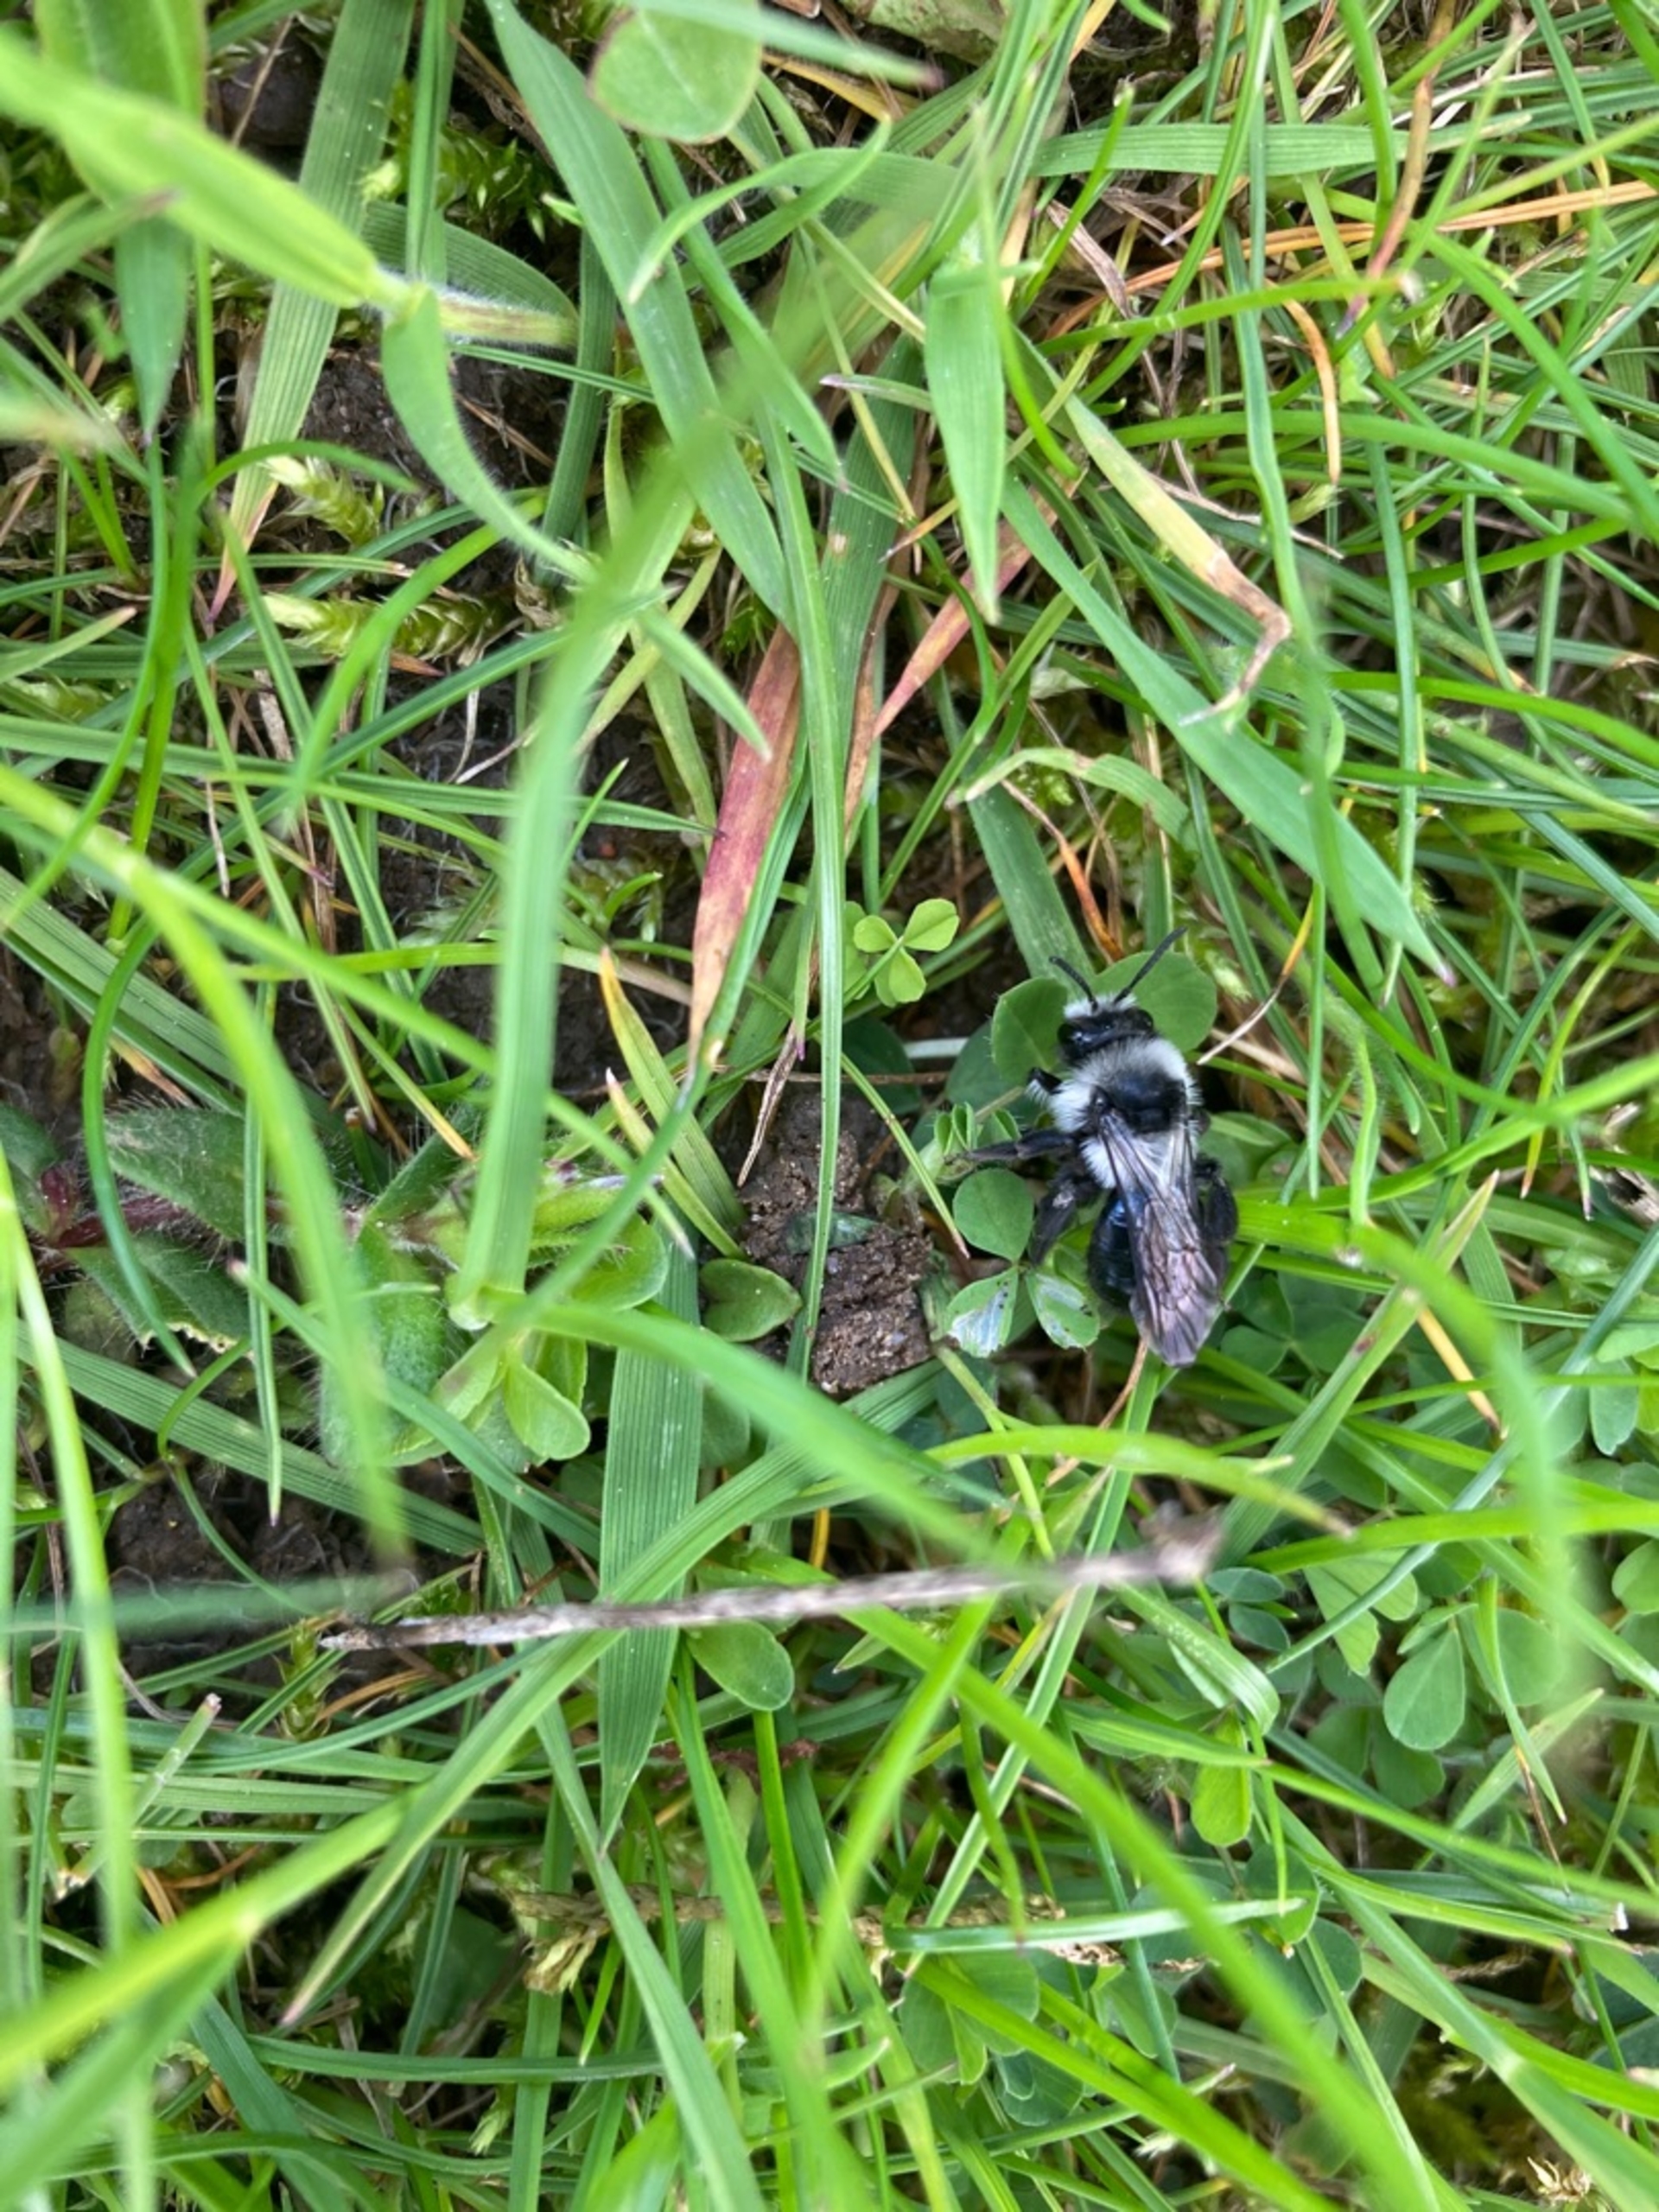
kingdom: Animalia
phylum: Arthropoda
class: Insecta
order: Hymenoptera
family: Andrenidae
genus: Andrena
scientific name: Andrena cineraria
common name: Sorthvid jordbi
